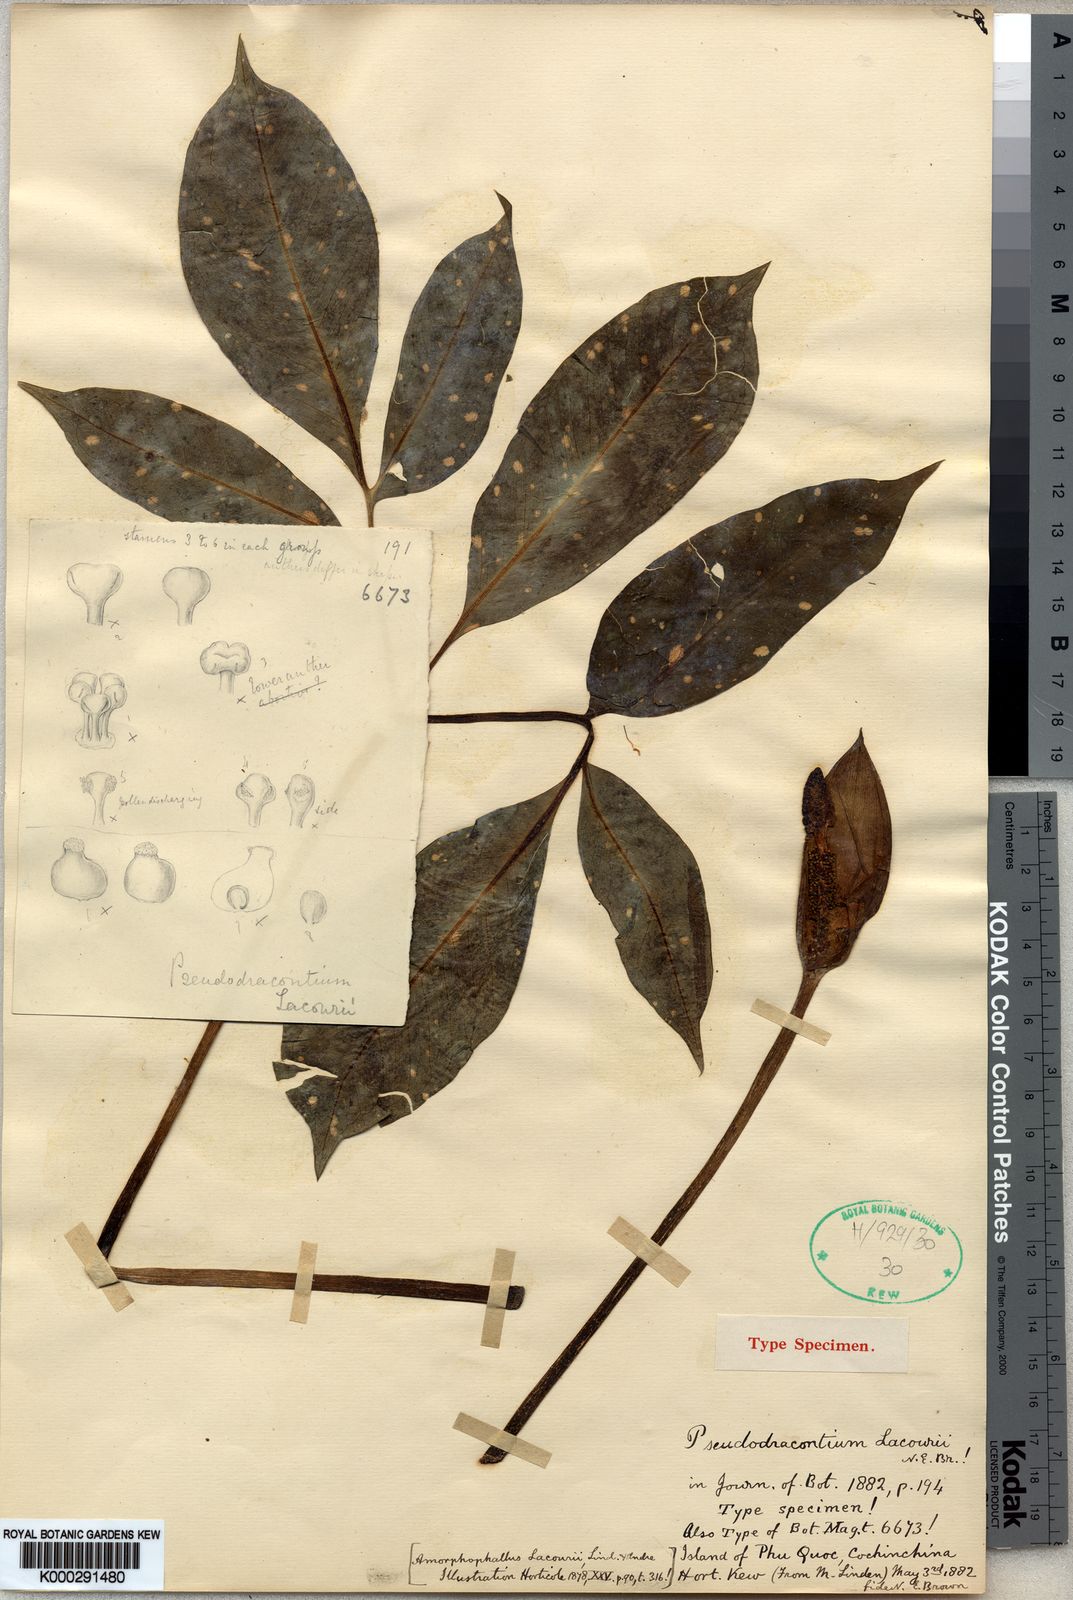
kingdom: Plantae
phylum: Tracheophyta
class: Liliopsida
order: Alismatales
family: Araceae
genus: Amorphophallus
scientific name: Amorphophallus
